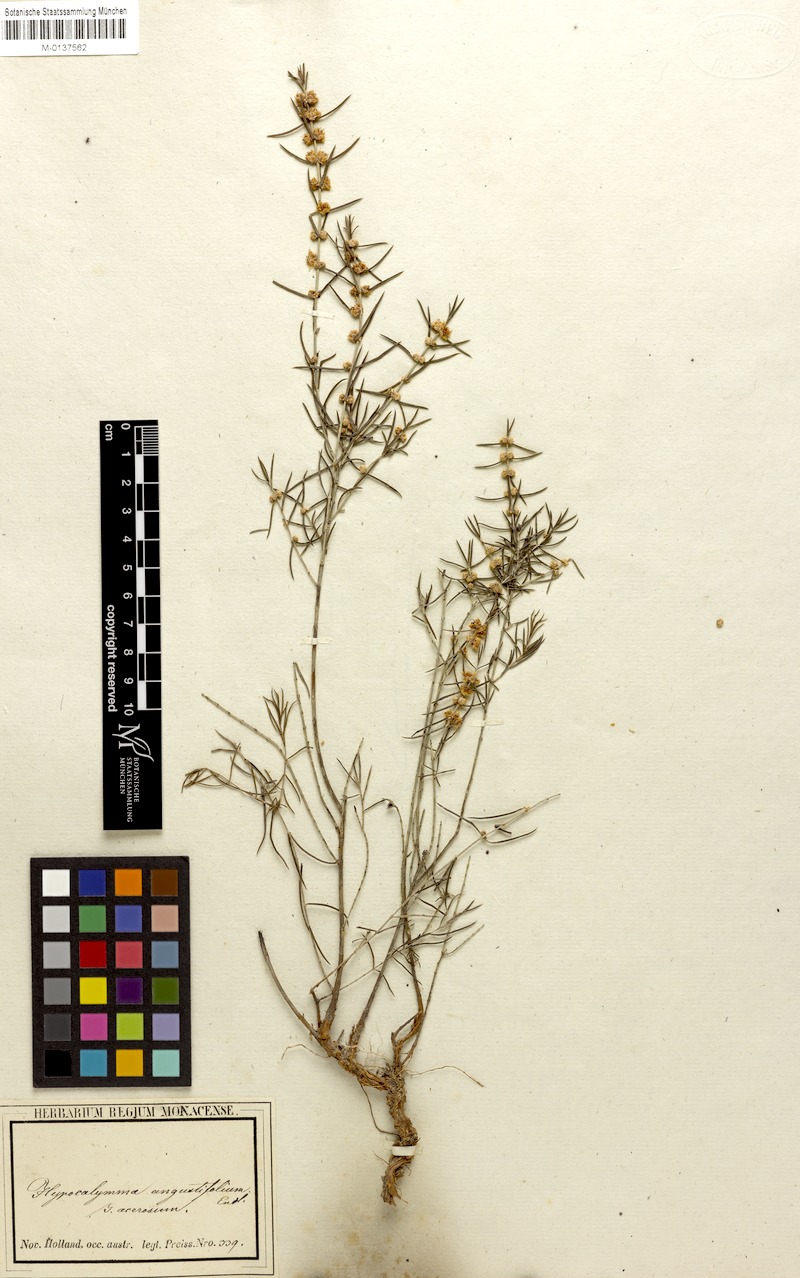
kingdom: Plantae
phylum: Tracheophyta
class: Magnoliopsida
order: Myrtales
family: Myrtaceae
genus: Hypocalymma
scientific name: Hypocalymma angustifolium
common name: White myrtle
